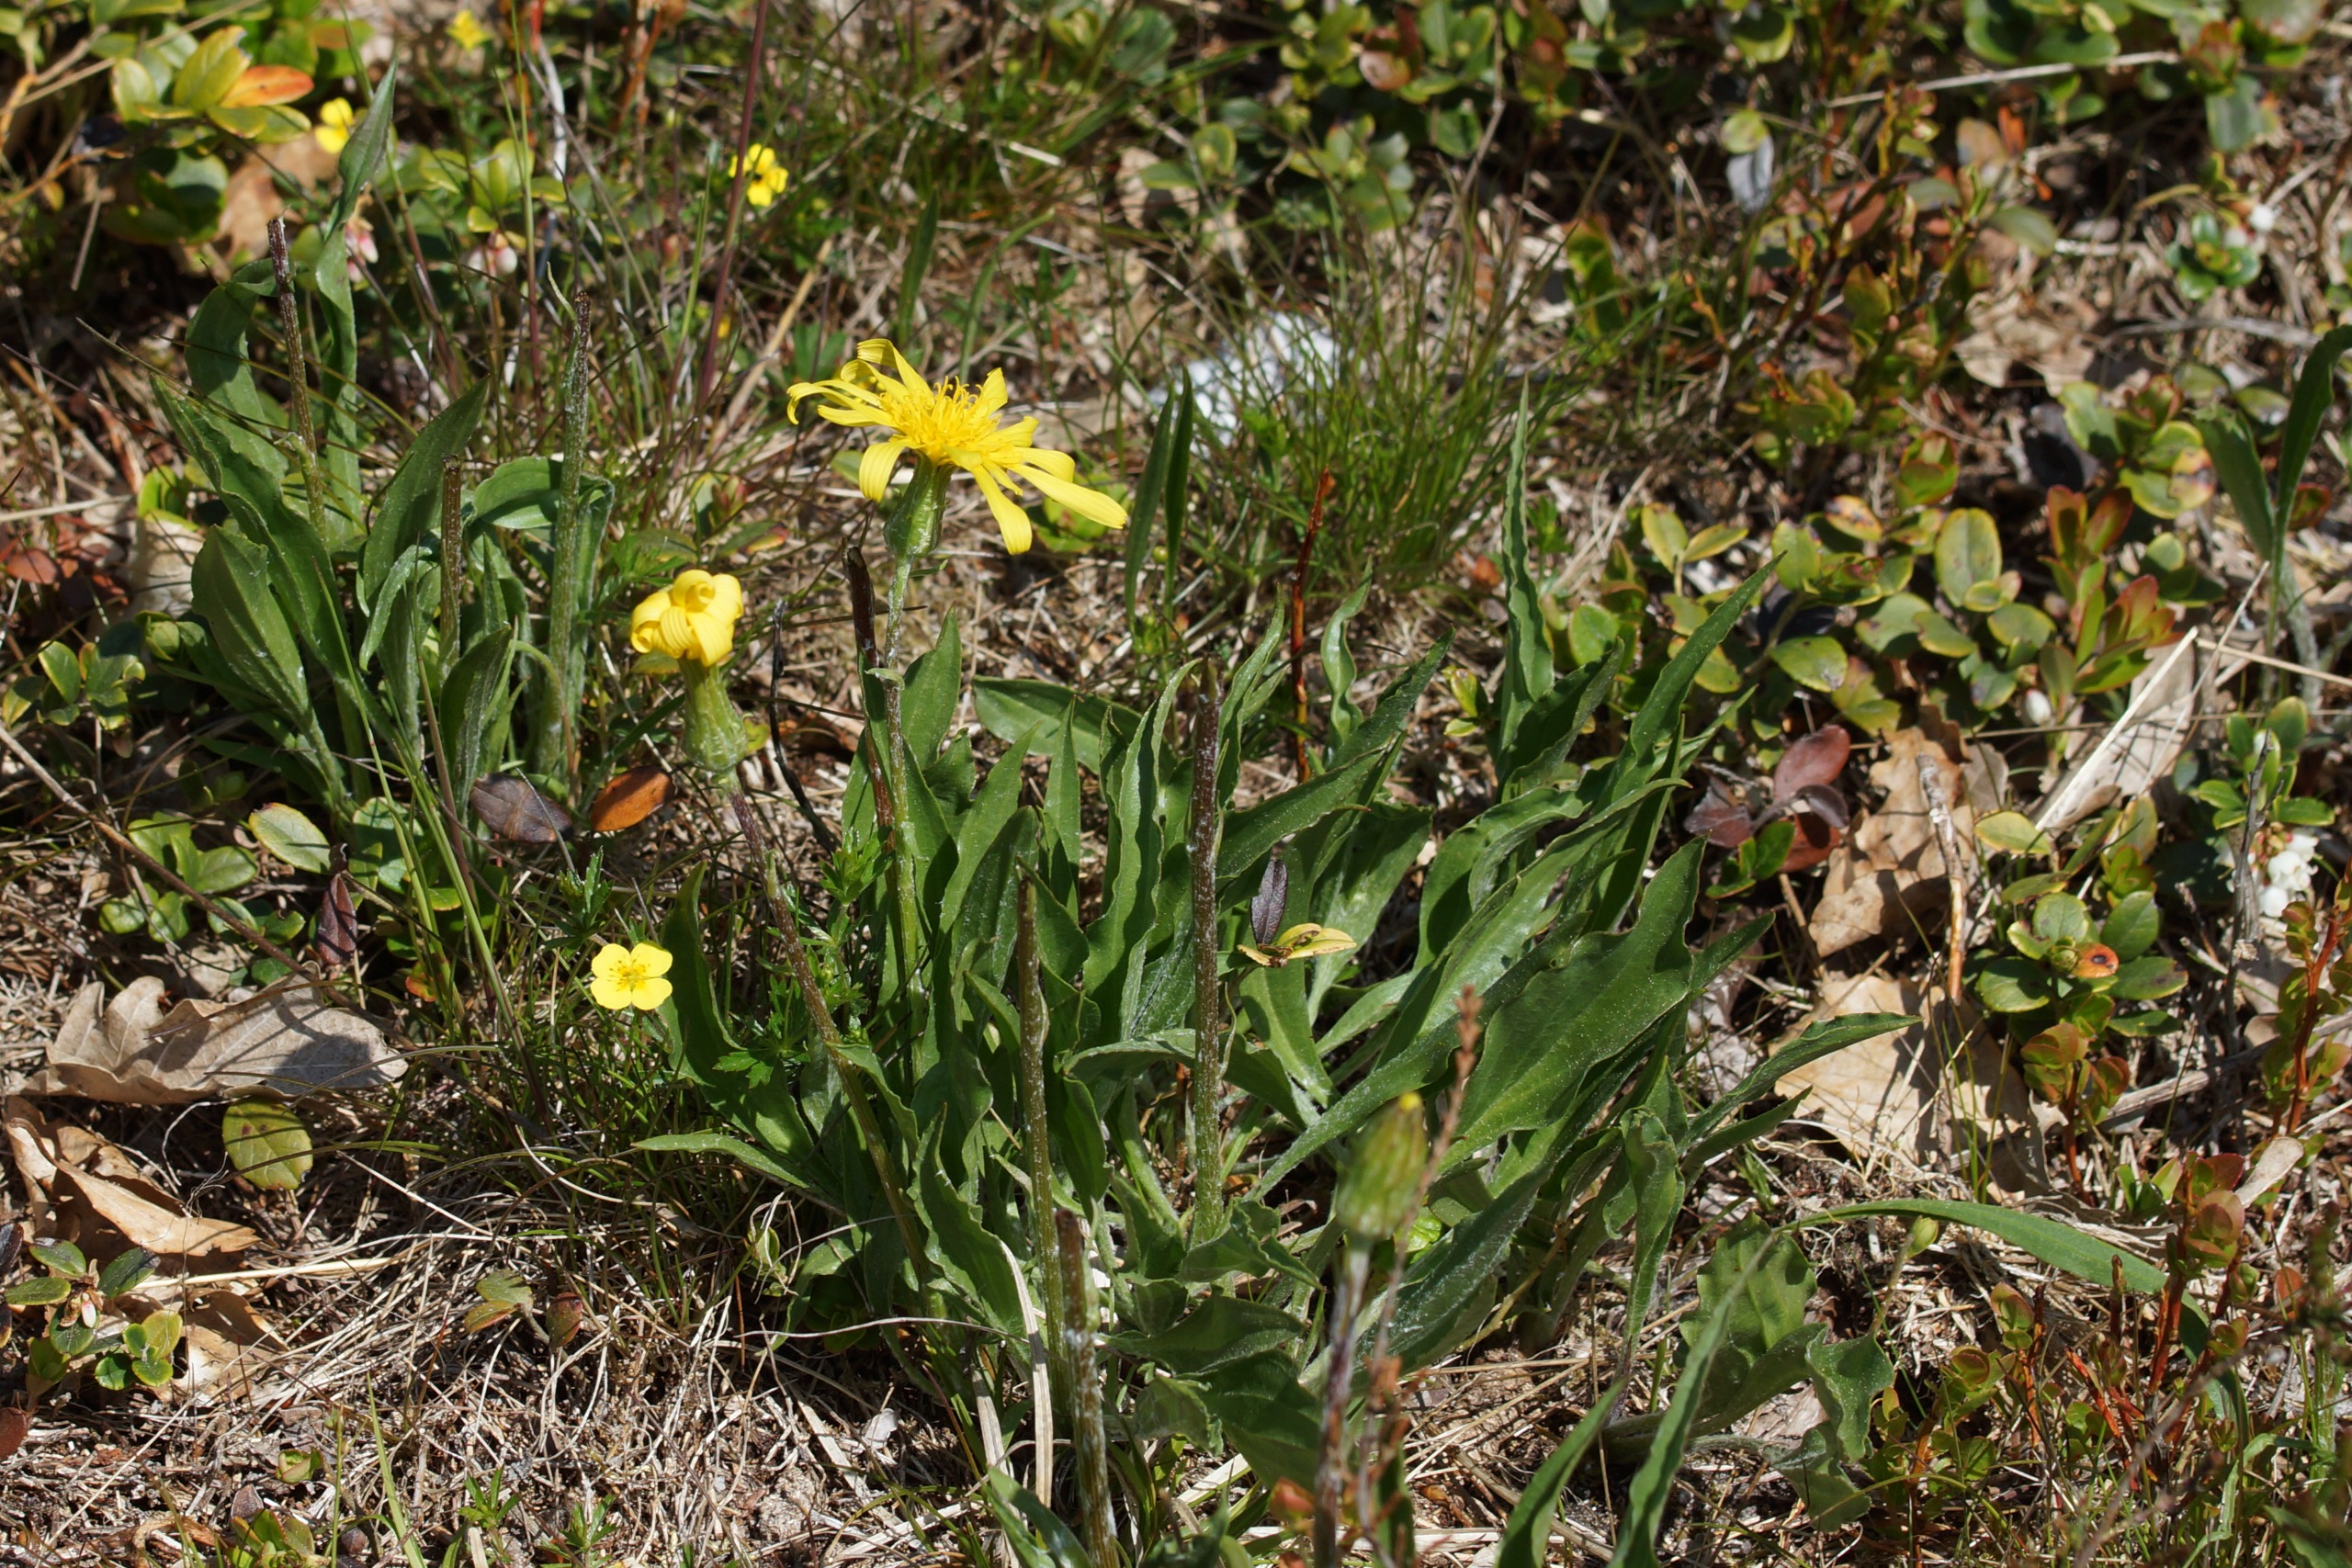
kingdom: Plantae
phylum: Tracheophyta
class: Magnoliopsida
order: Asterales
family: Asteraceae
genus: Scorzonera
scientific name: Scorzonera humilis
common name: Lav skorsoner
